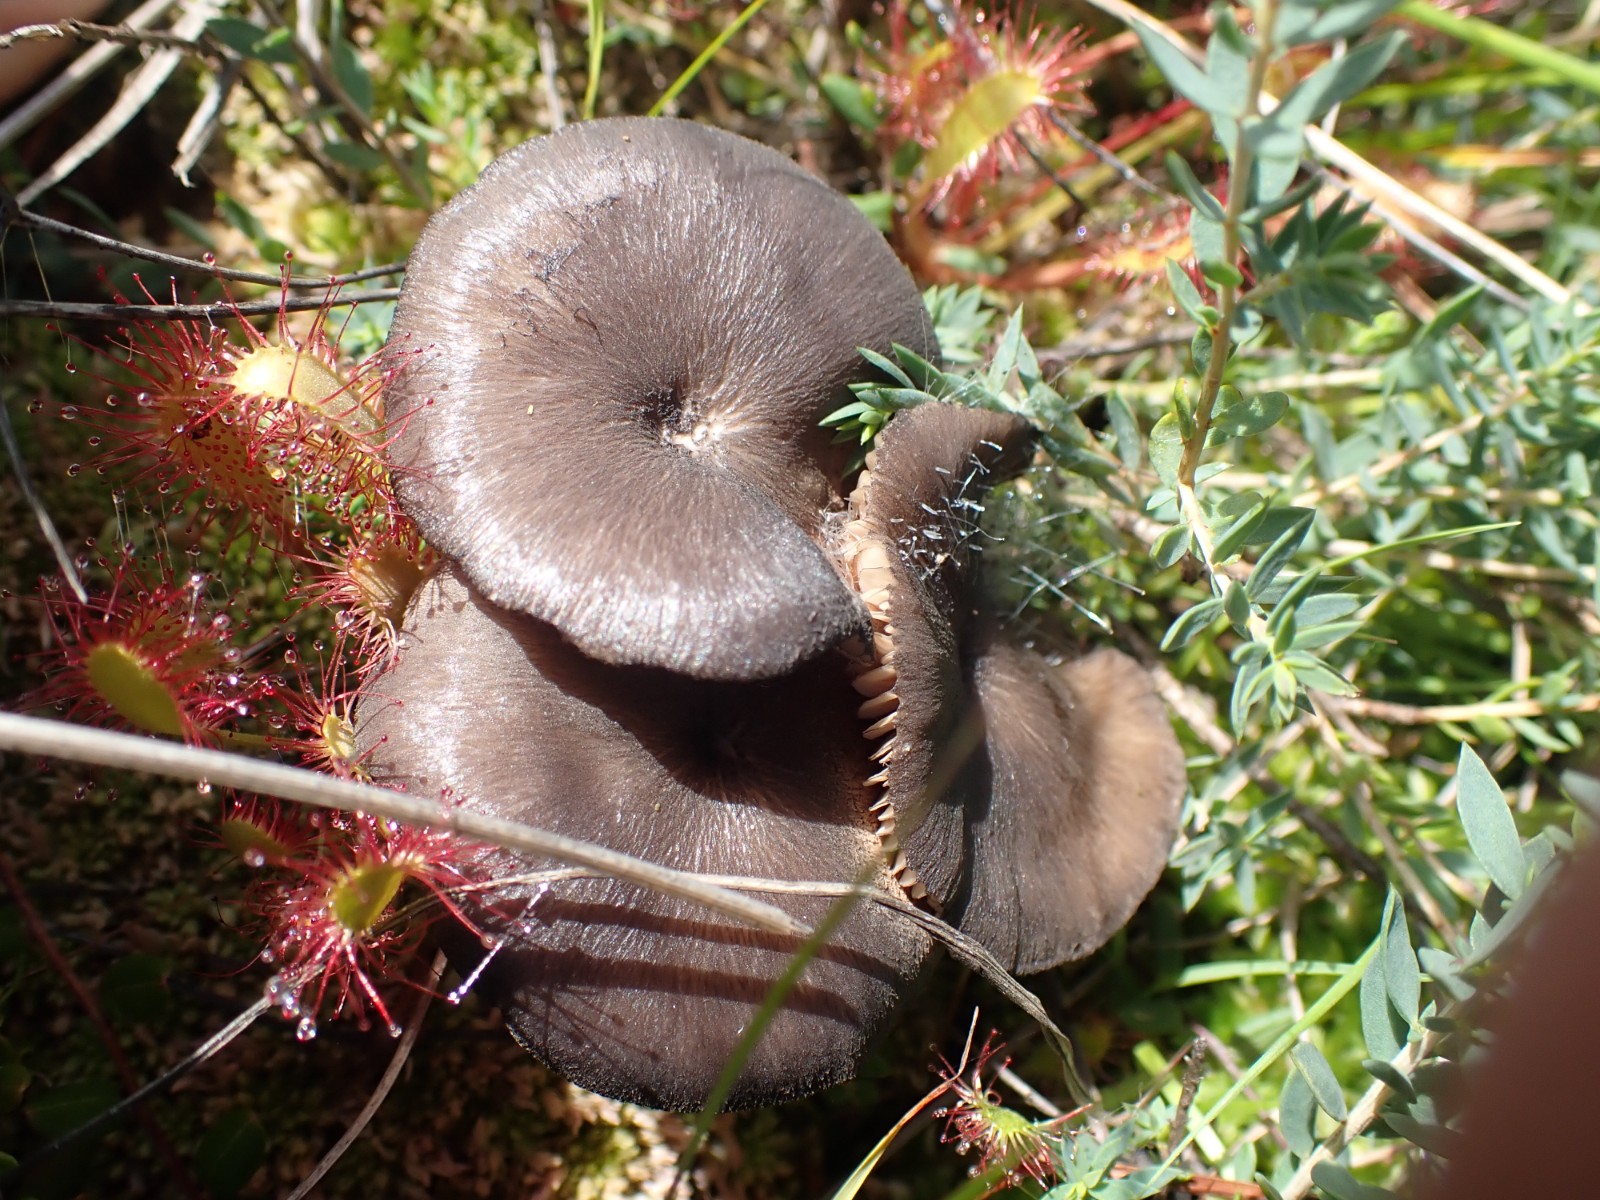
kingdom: Fungi
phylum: Basidiomycota
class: Agaricomycetes
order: Agaricales
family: Entolomataceae
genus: Entoloma
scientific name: Entoloma
